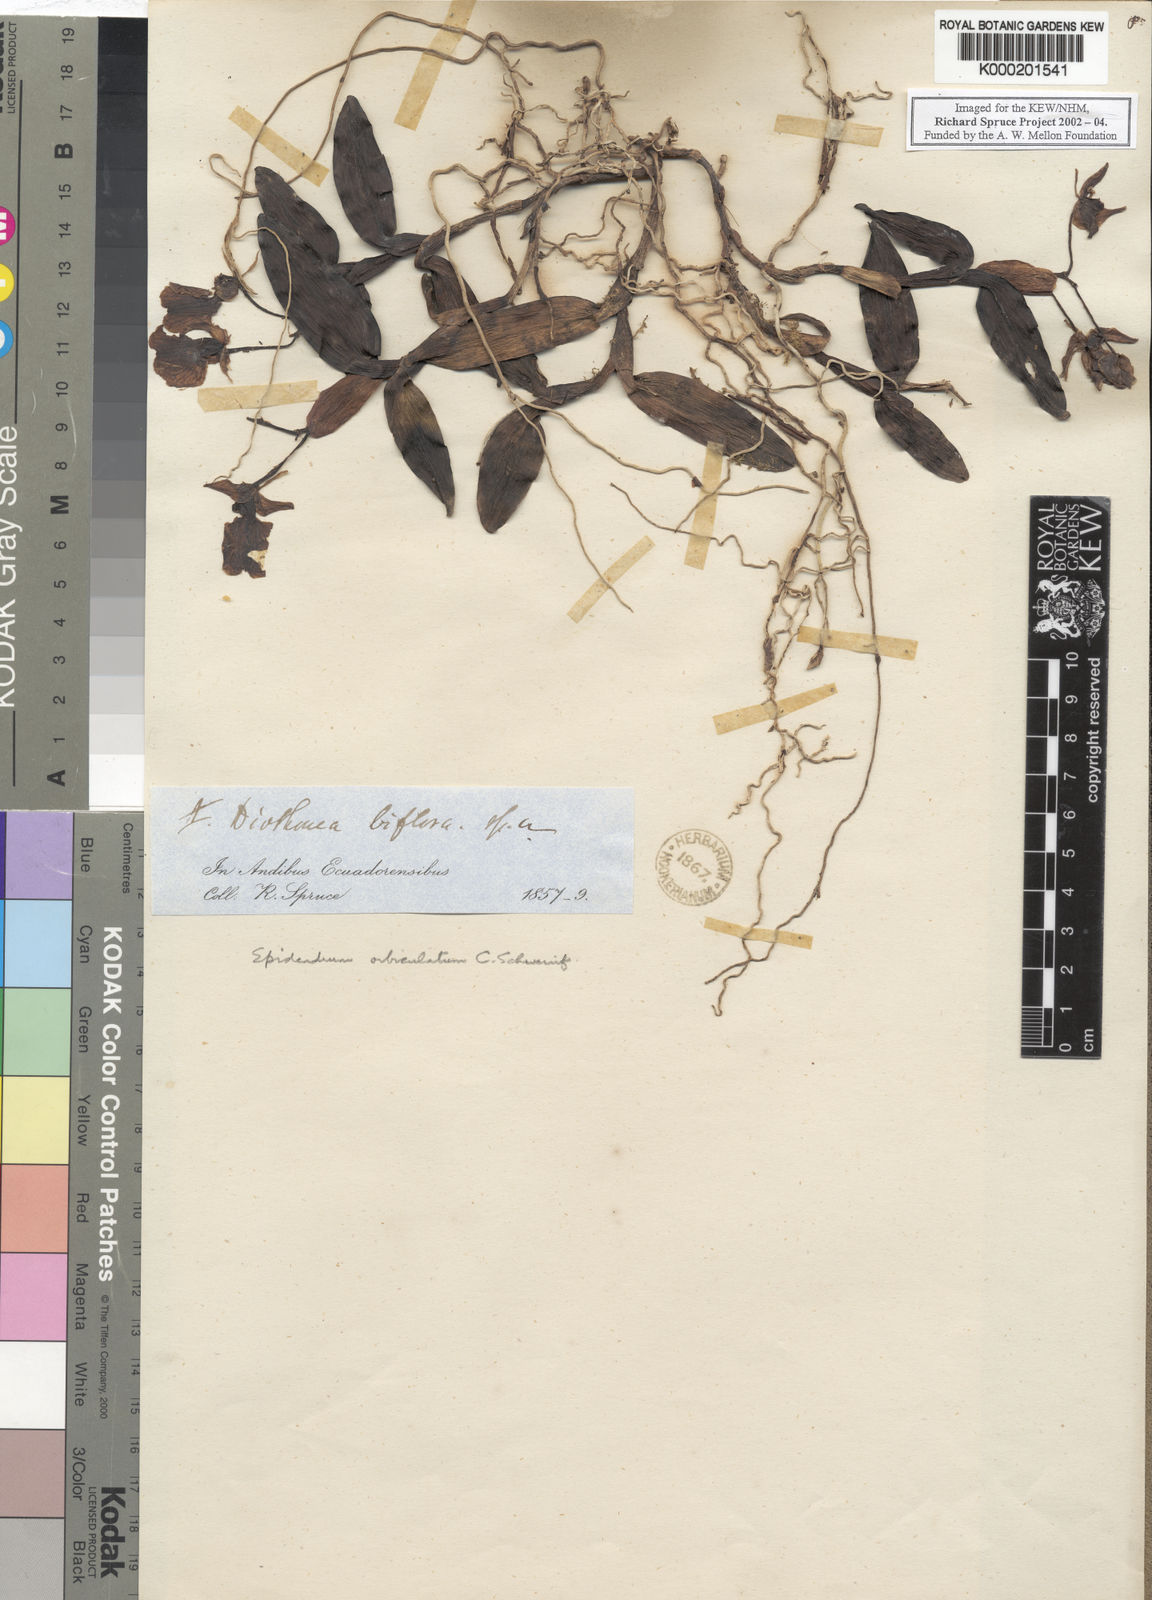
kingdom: Plantae
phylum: Tracheophyta
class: Liliopsida
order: Asparagales
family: Orchidaceae
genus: Epidendrum
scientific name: Epidendrum orbiculatum
